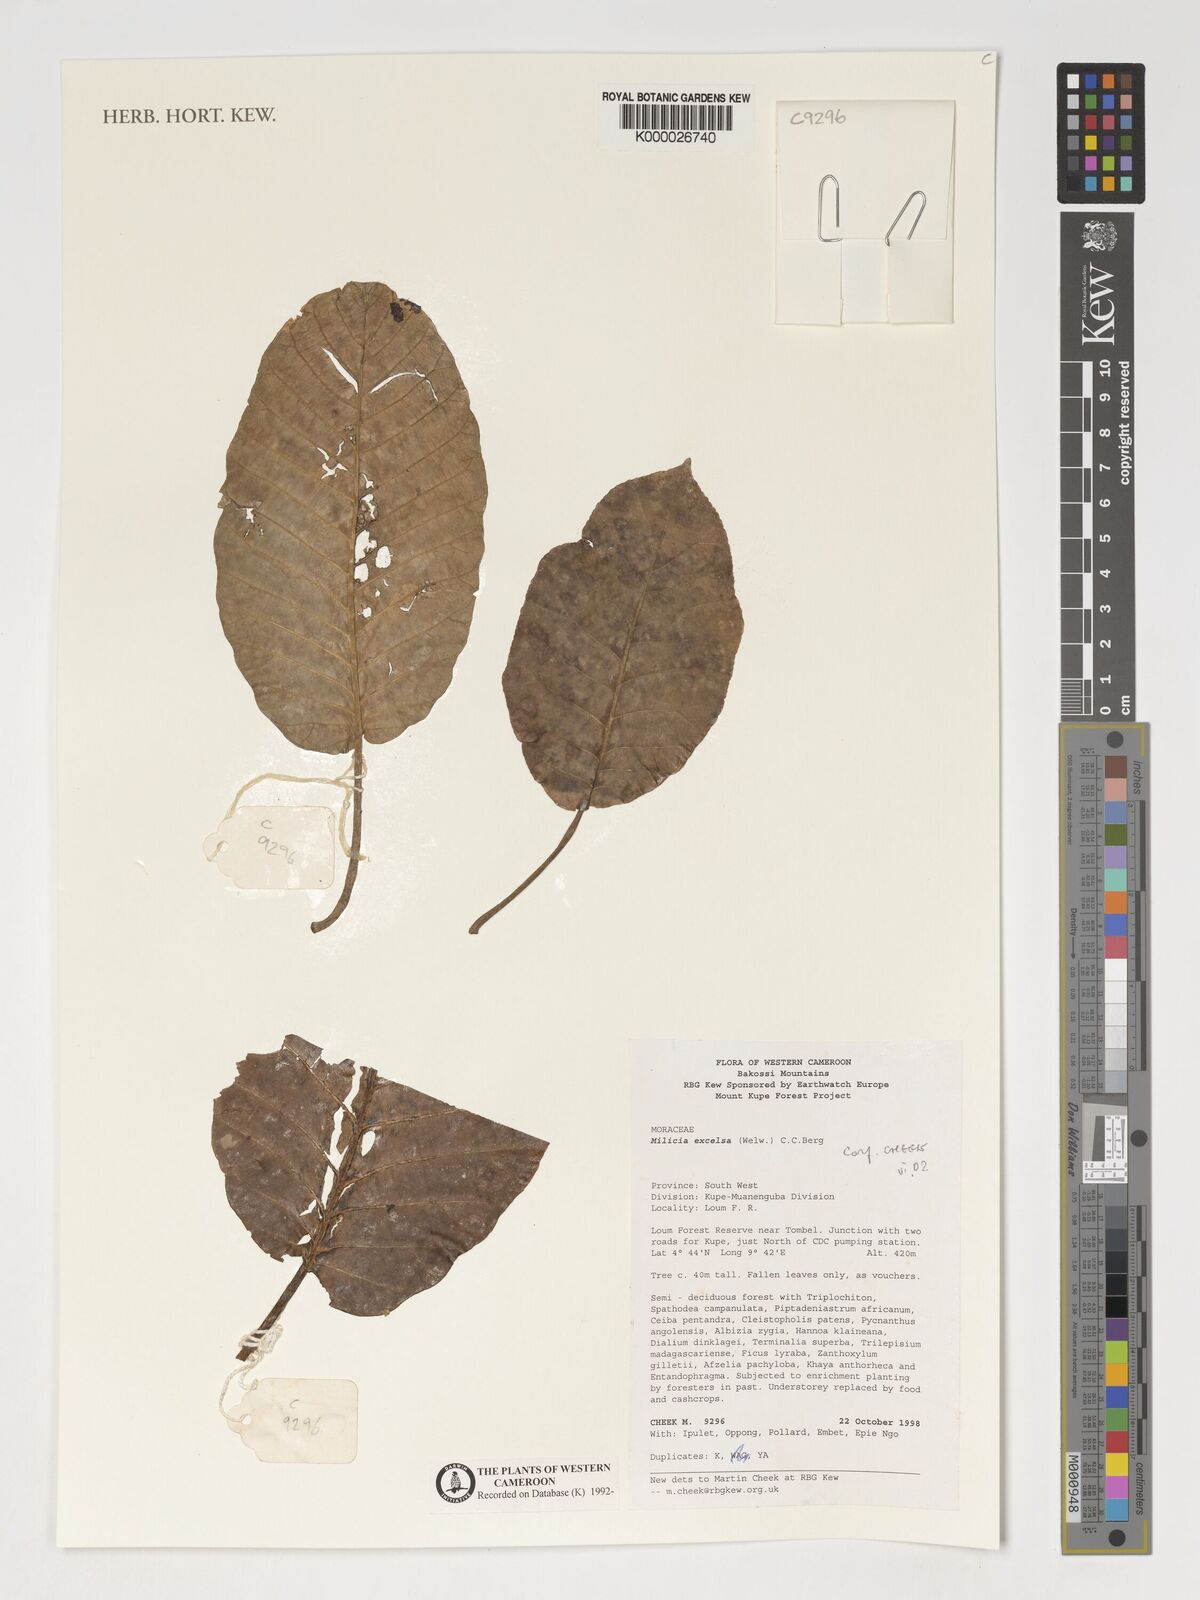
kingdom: Plantae
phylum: Tracheophyta
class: Magnoliopsida
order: Rosales
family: Moraceae
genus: Milicia
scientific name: Milicia excelsa
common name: African teak
